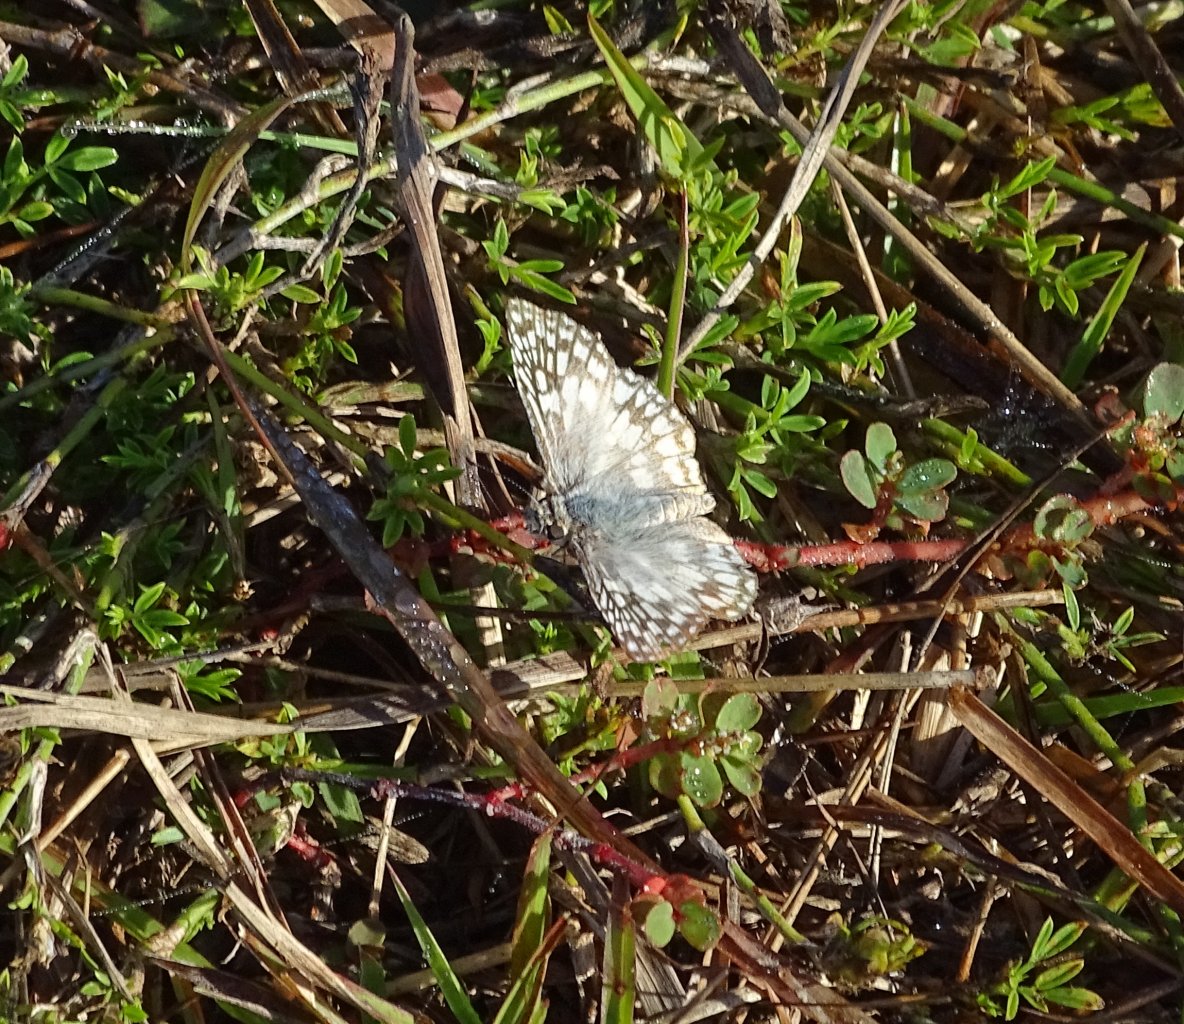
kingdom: Animalia
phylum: Arthropoda
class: Insecta
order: Lepidoptera
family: Hesperiidae
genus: Pyrgus
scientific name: Pyrgus oileus
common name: Tropical Checkered-Skipper
